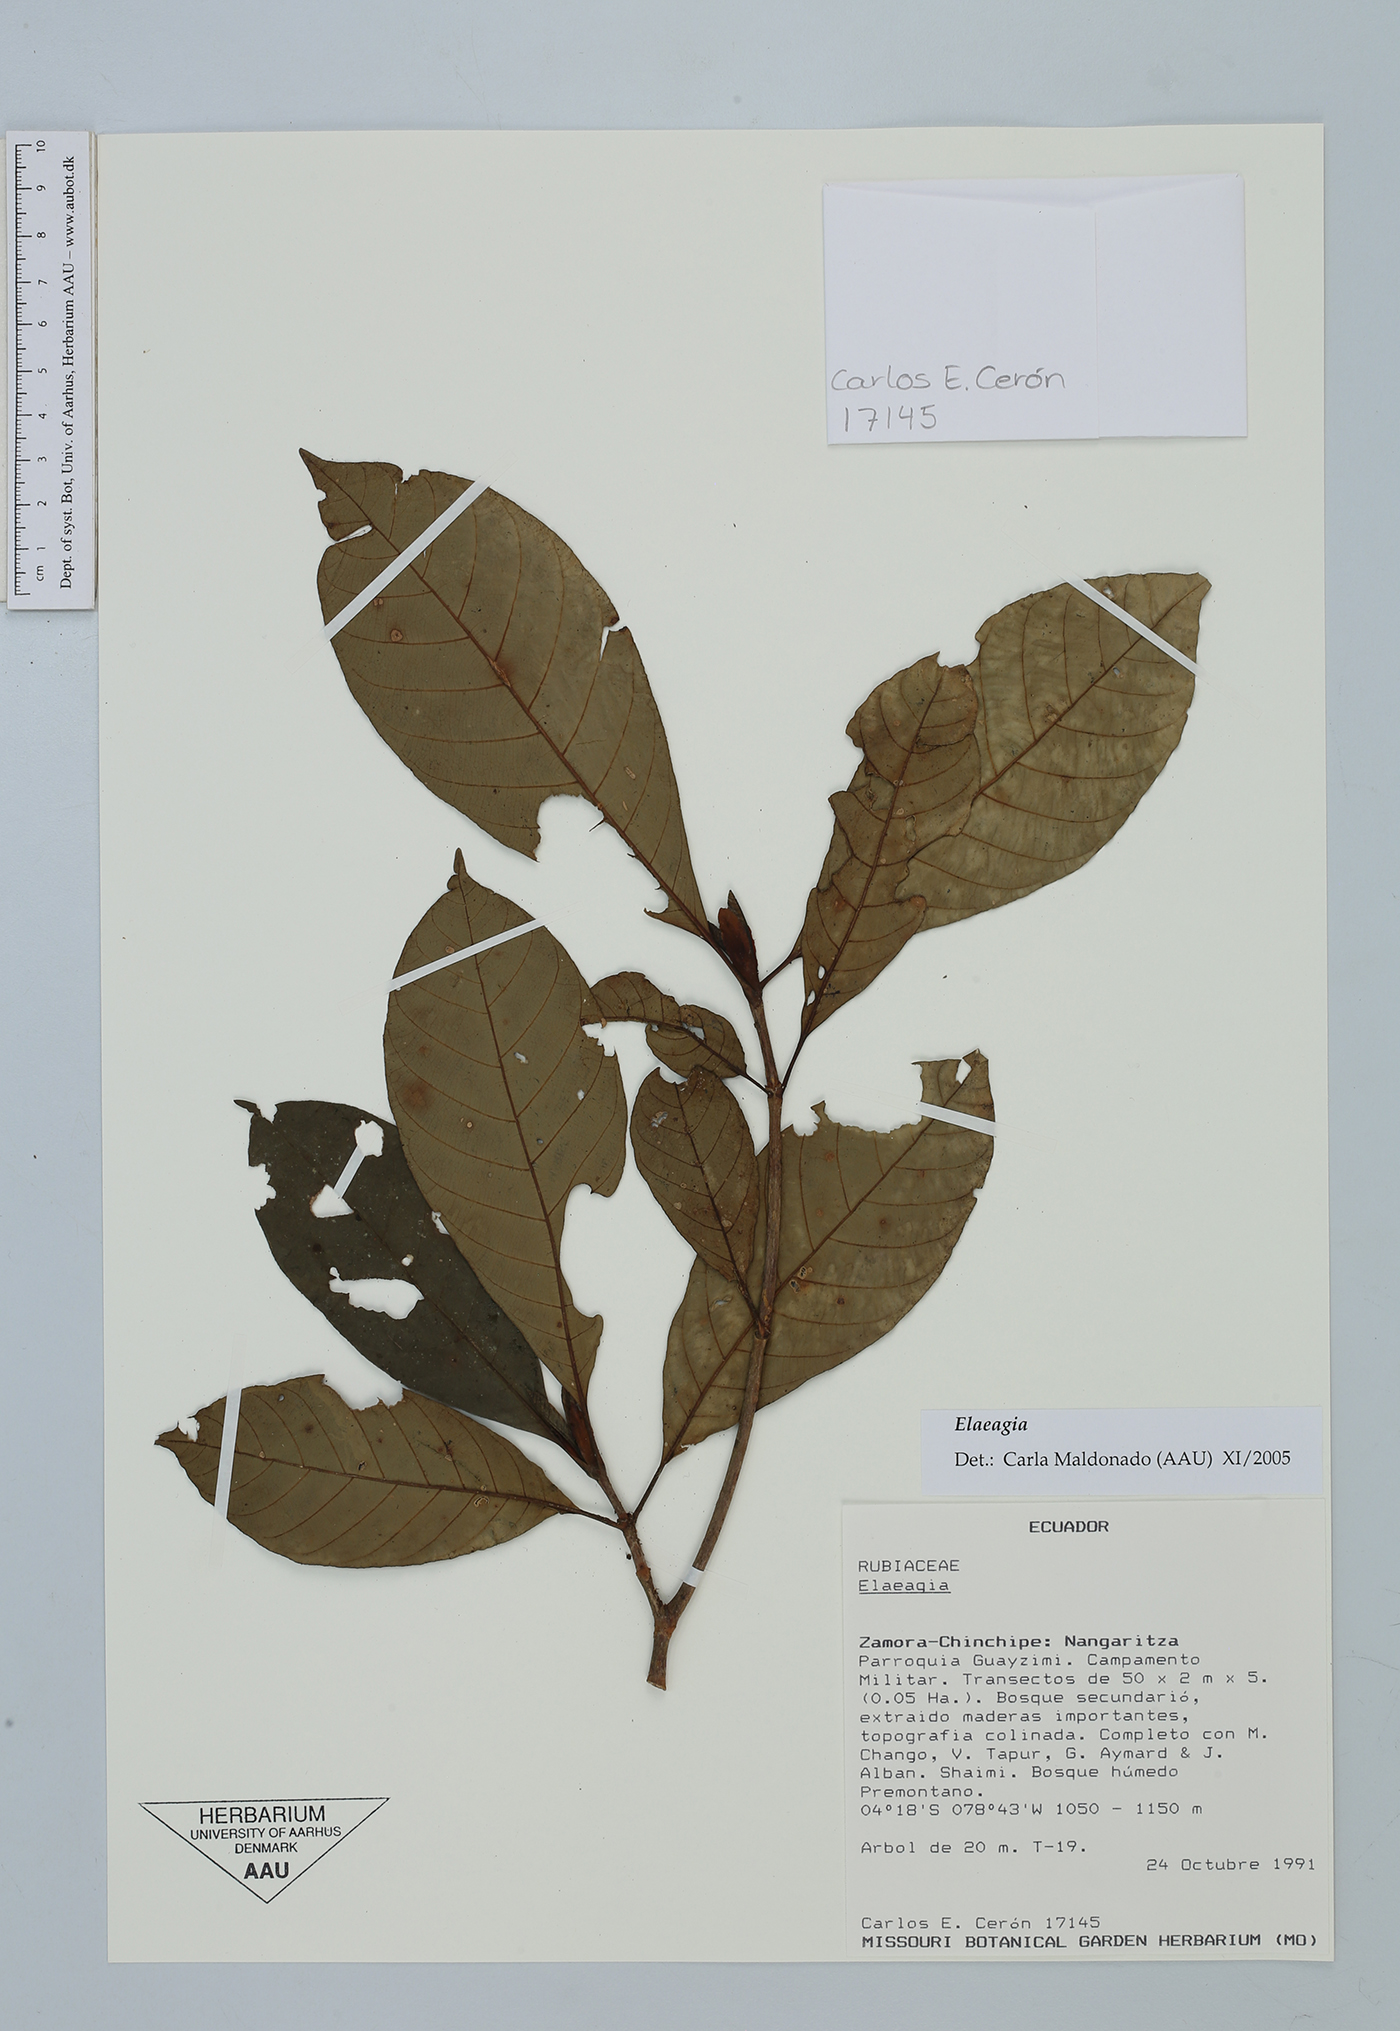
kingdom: Plantae
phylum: Tracheophyta
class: Magnoliopsida
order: Gentianales
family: Rubiaceae
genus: Elaeagia
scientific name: Elaeagia
